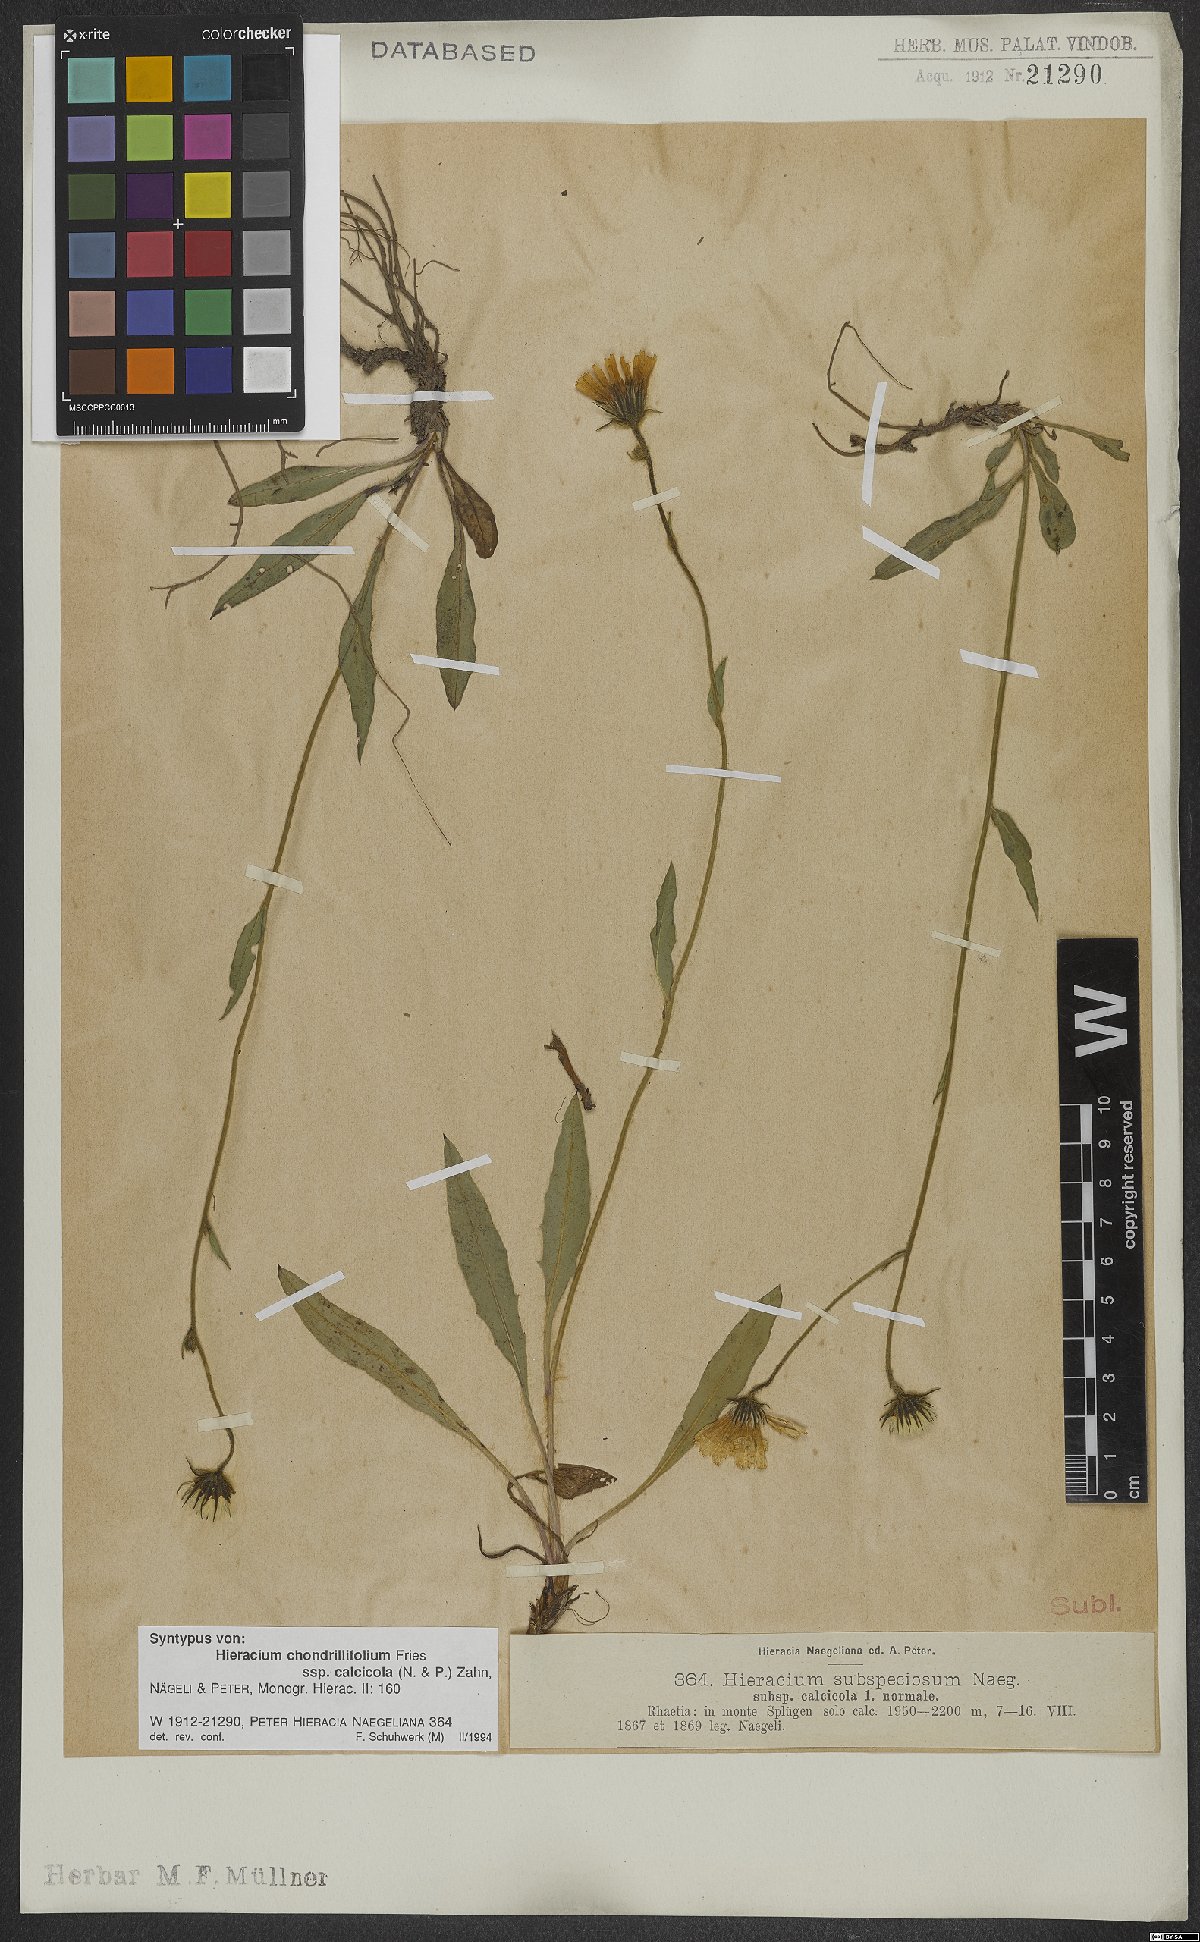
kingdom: Plantae
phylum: Tracheophyta
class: Magnoliopsida
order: Asterales
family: Asteraceae
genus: Hieracium
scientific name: Hieracium chondrillifolium
